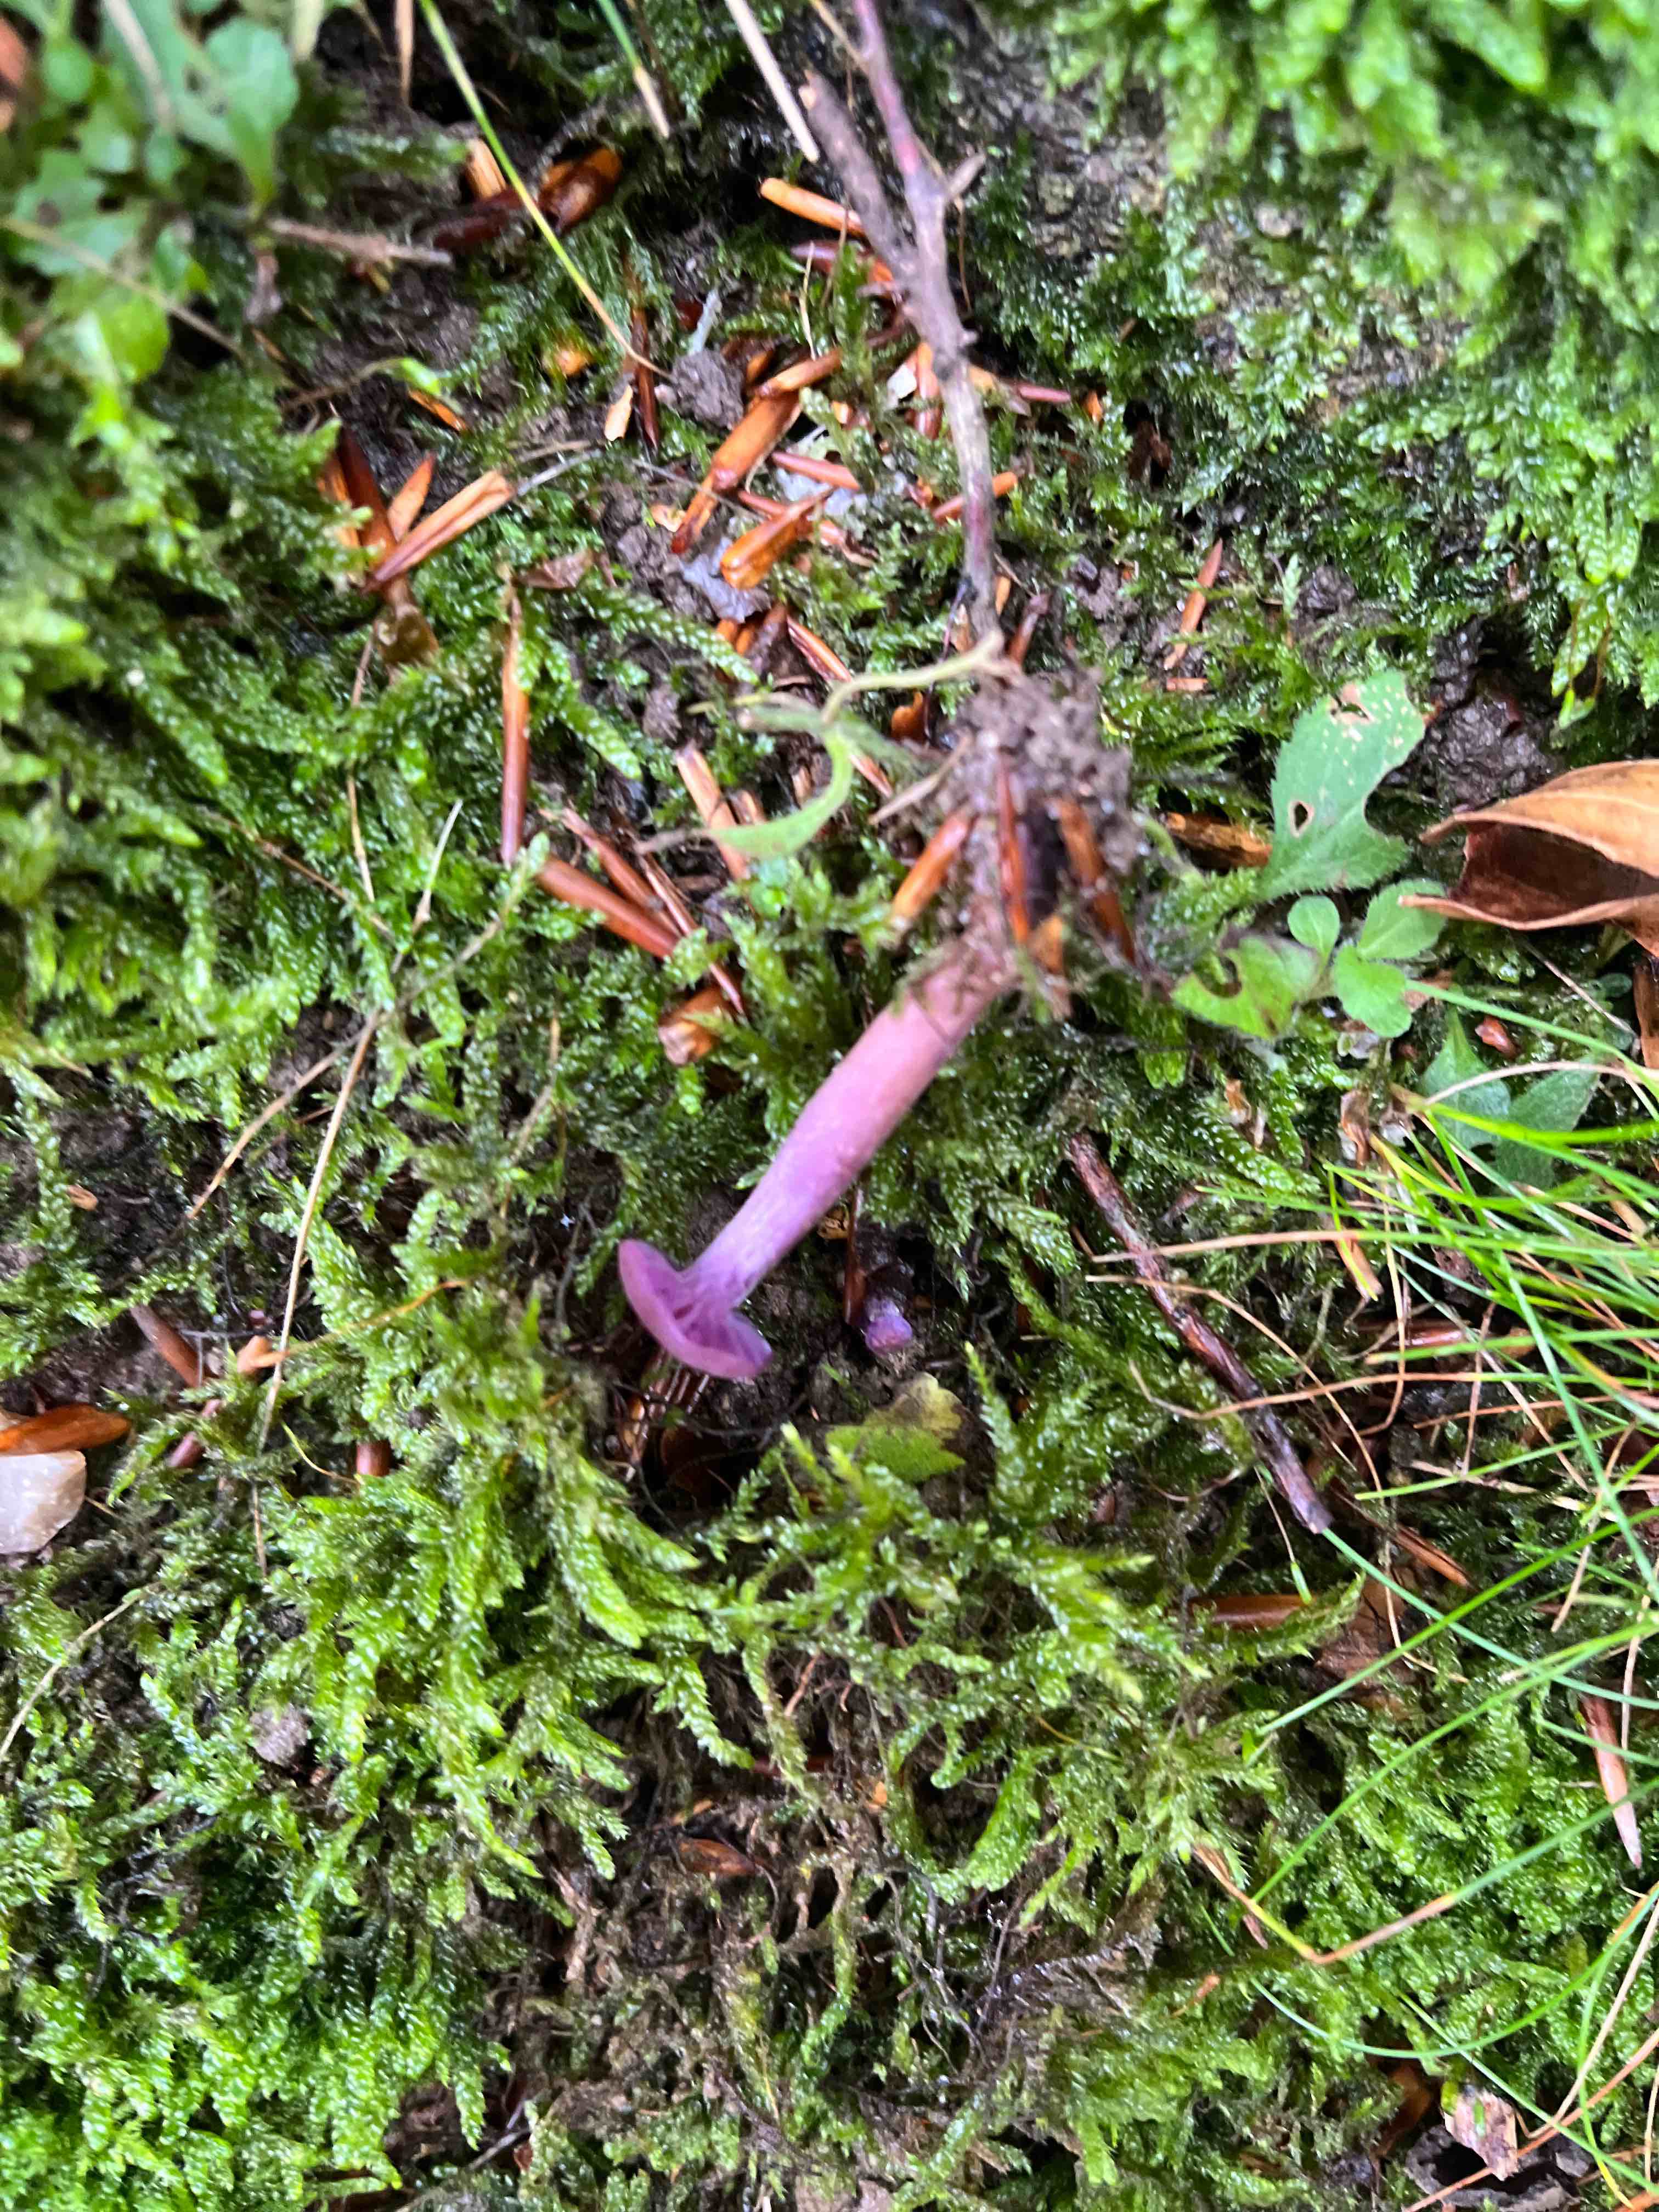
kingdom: Fungi
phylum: Basidiomycota
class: Agaricomycetes
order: Agaricales
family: Hydnangiaceae
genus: Laccaria
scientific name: Laccaria amethystina
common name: violet ametysthat
